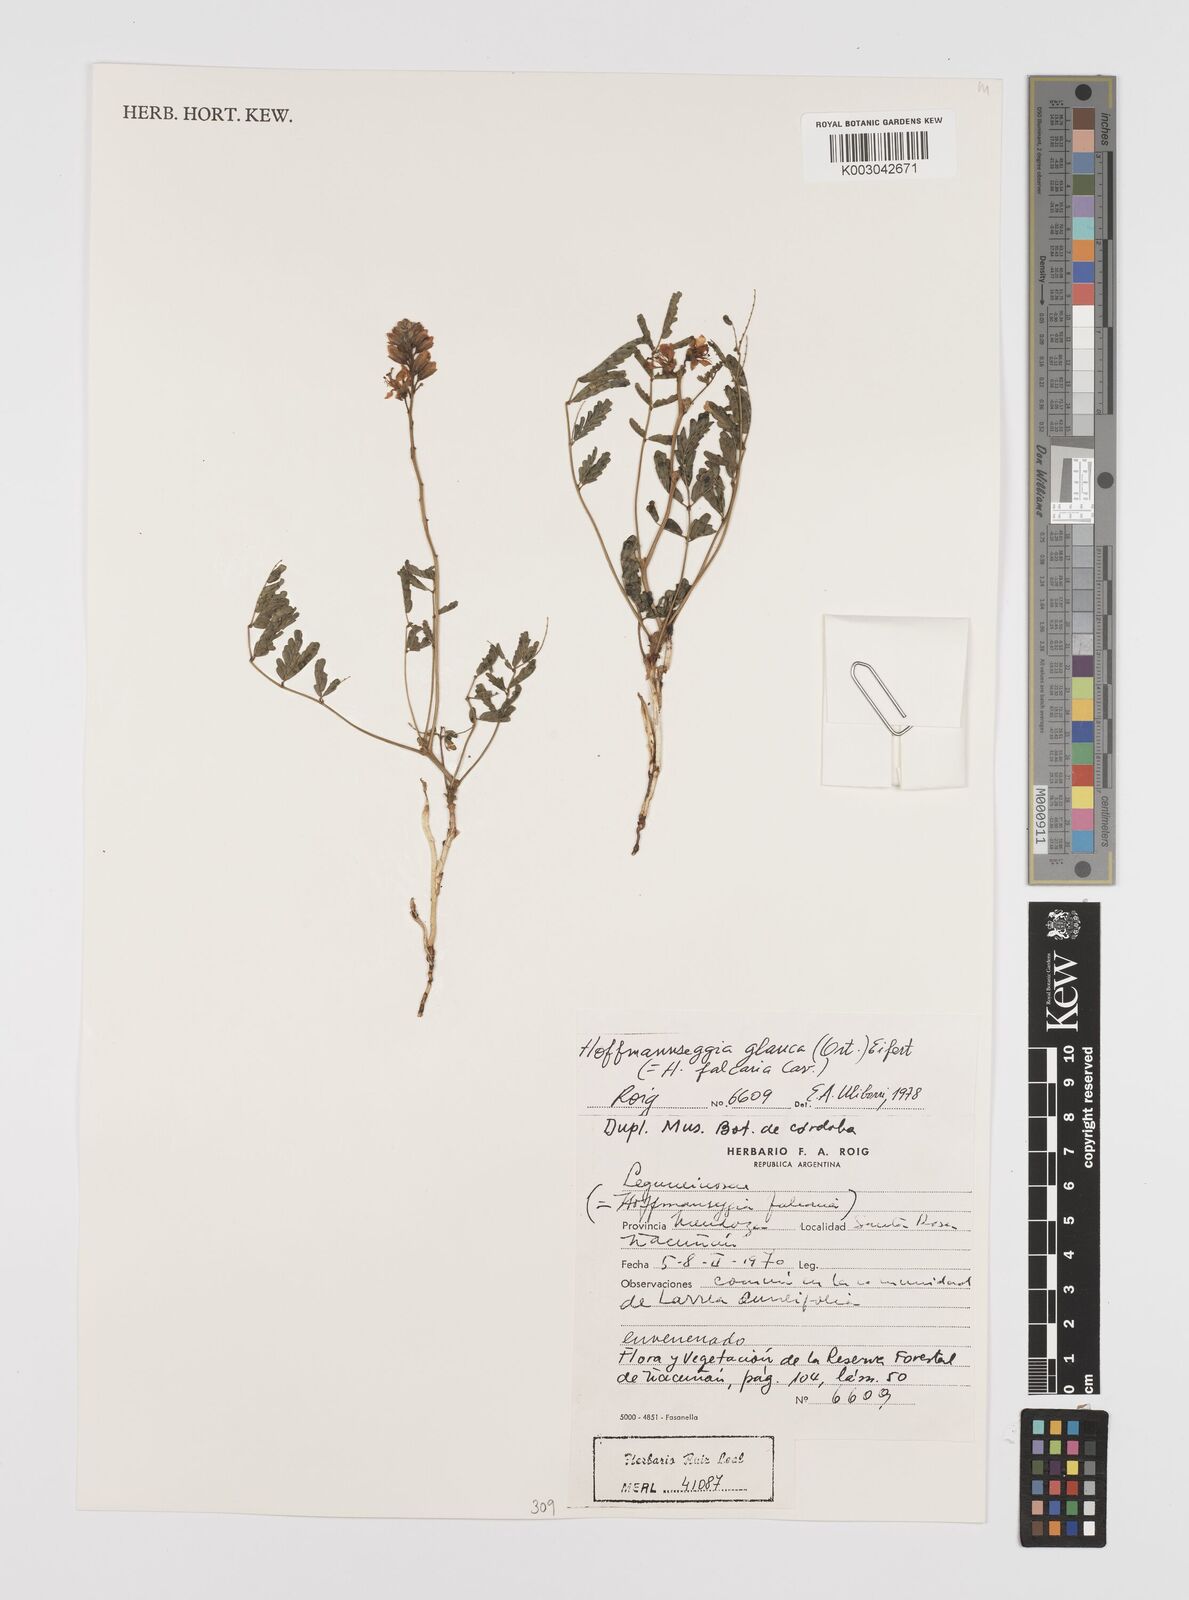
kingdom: Plantae
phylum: Tracheophyta
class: Magnoliopsida
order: Fabales
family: Fabaceae
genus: Hoffmannseggia
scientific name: Hoffmannseggia glauca
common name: Pignut
